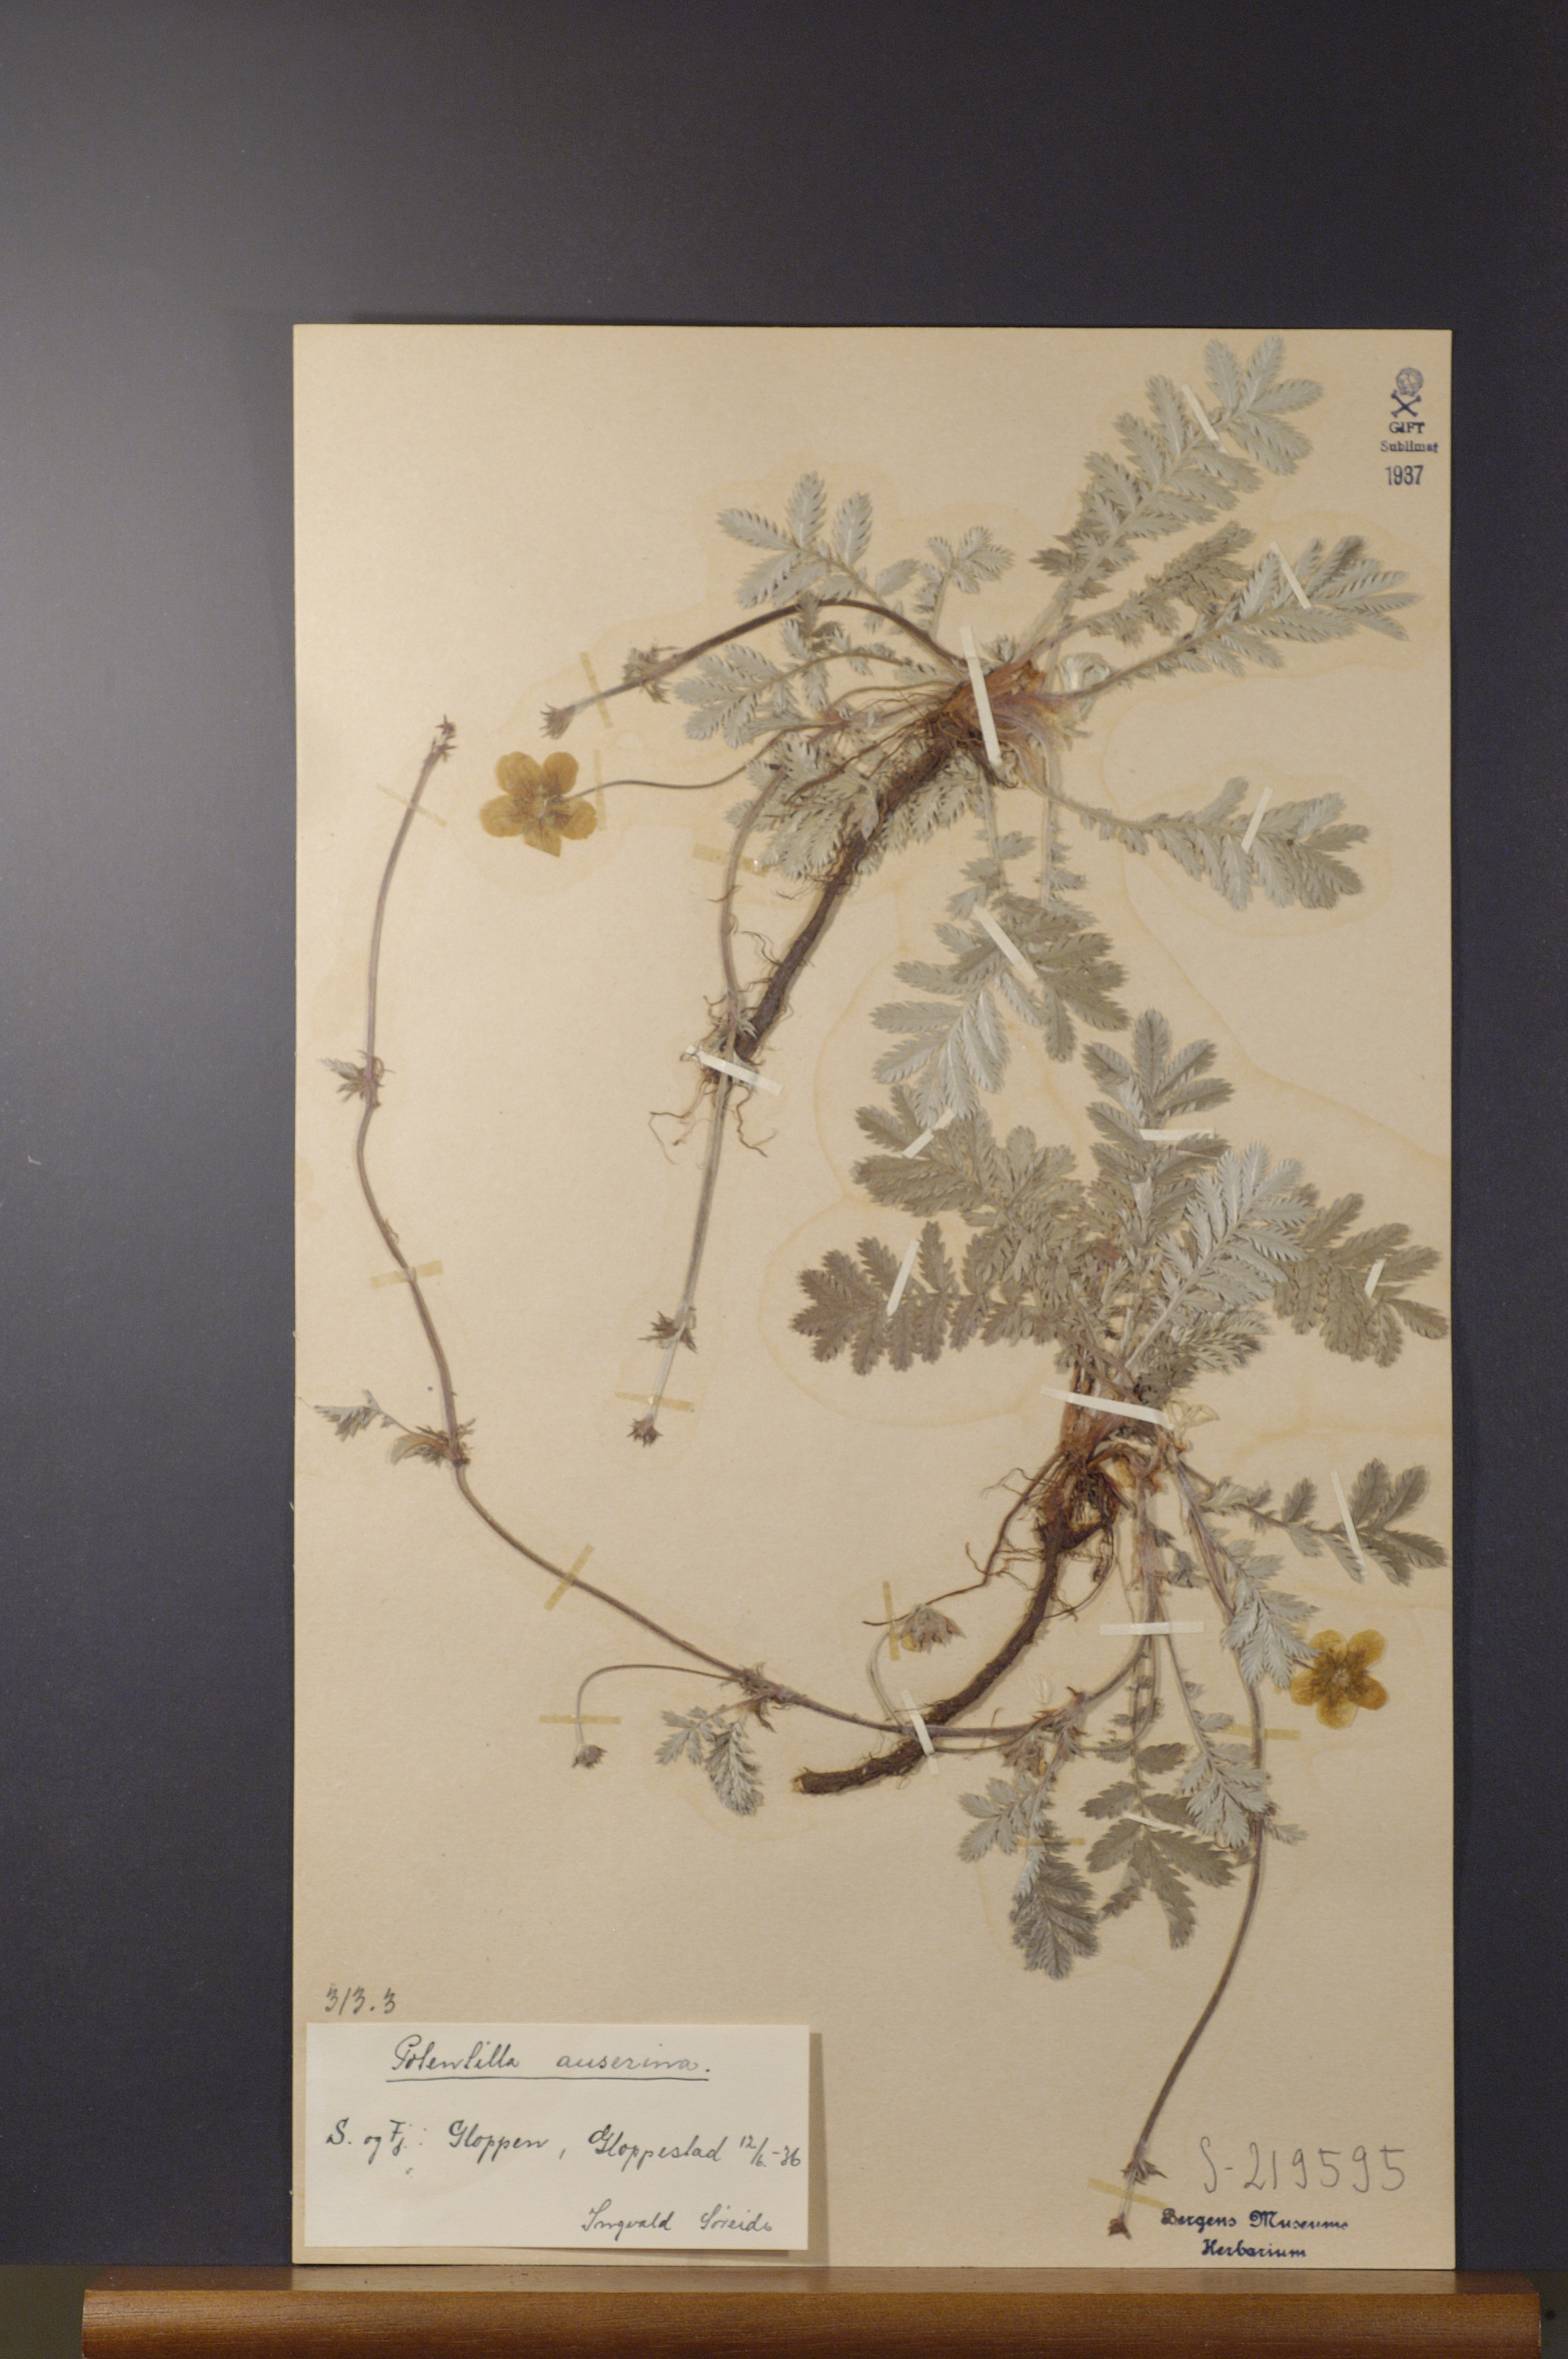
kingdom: Plantae
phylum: Tracheophyta
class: Magnoliopsida
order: Rosales
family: Rosaceae
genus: Argentina
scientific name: Argentina anserina
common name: Common silverweed
